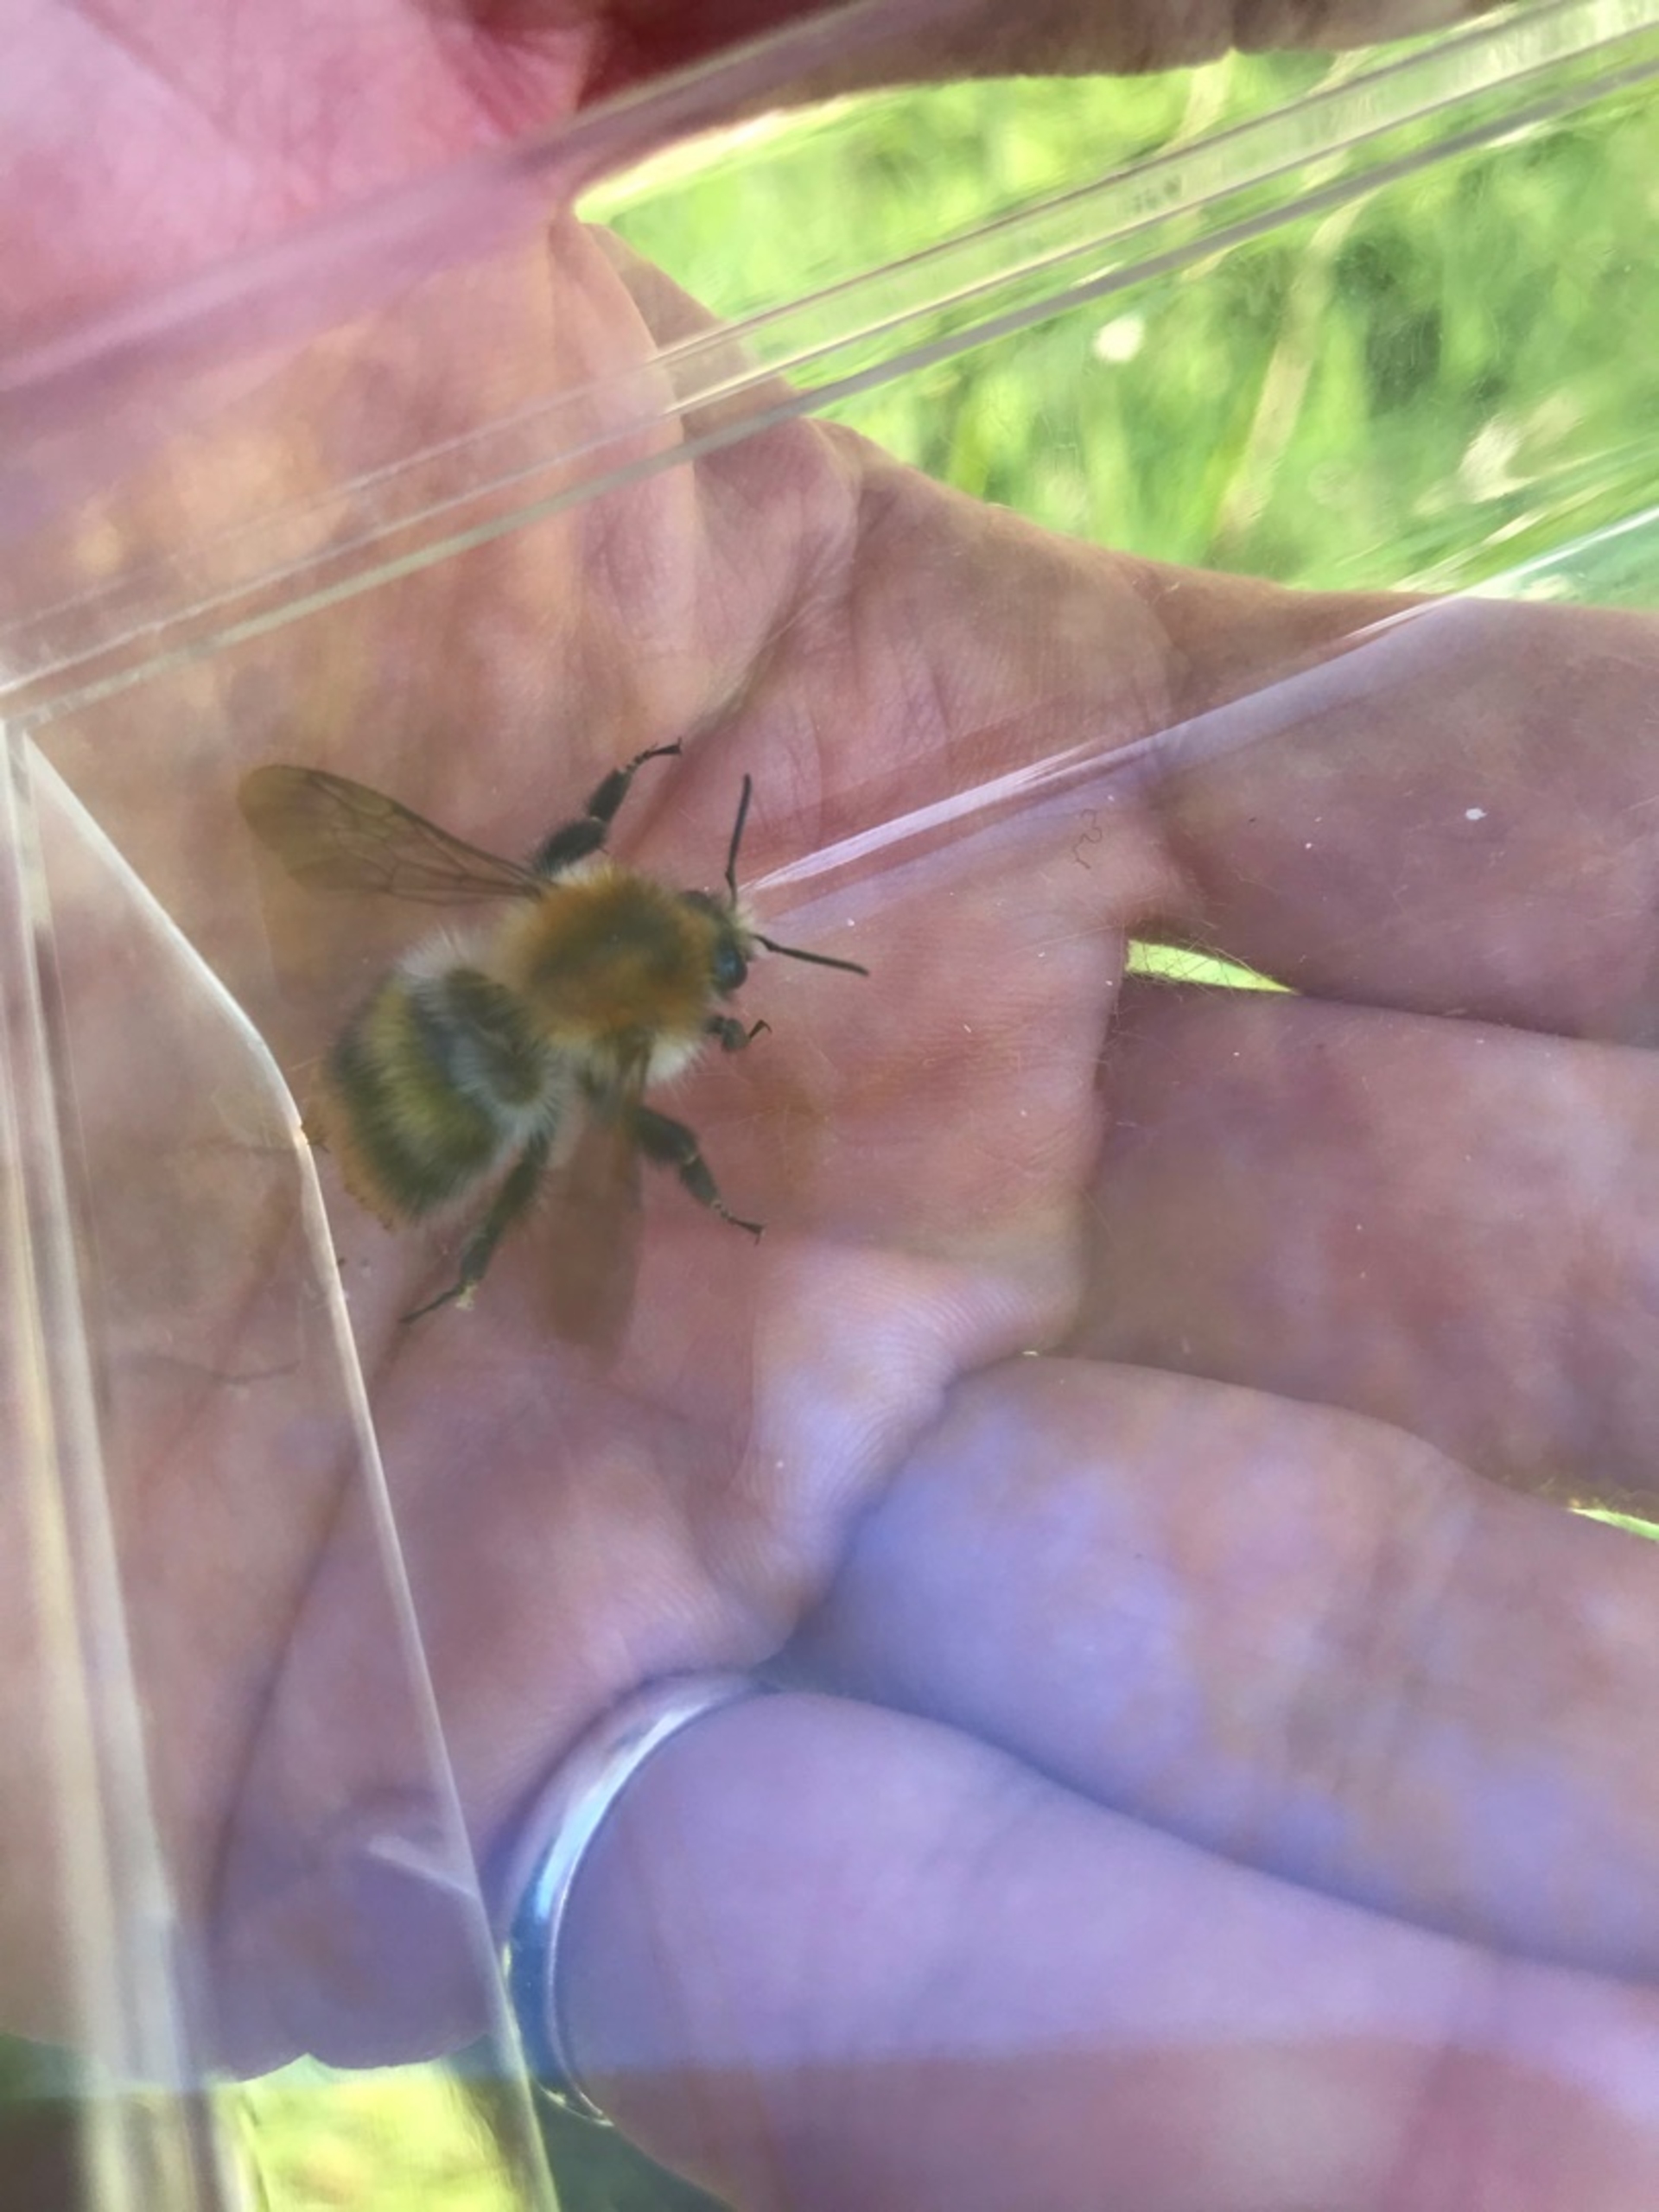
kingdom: Animalia
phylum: Arthropoda
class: Insecta
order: Hymenoptera
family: Apidae
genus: Bombus
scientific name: Bombus pascuorum
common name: Agerhumle
